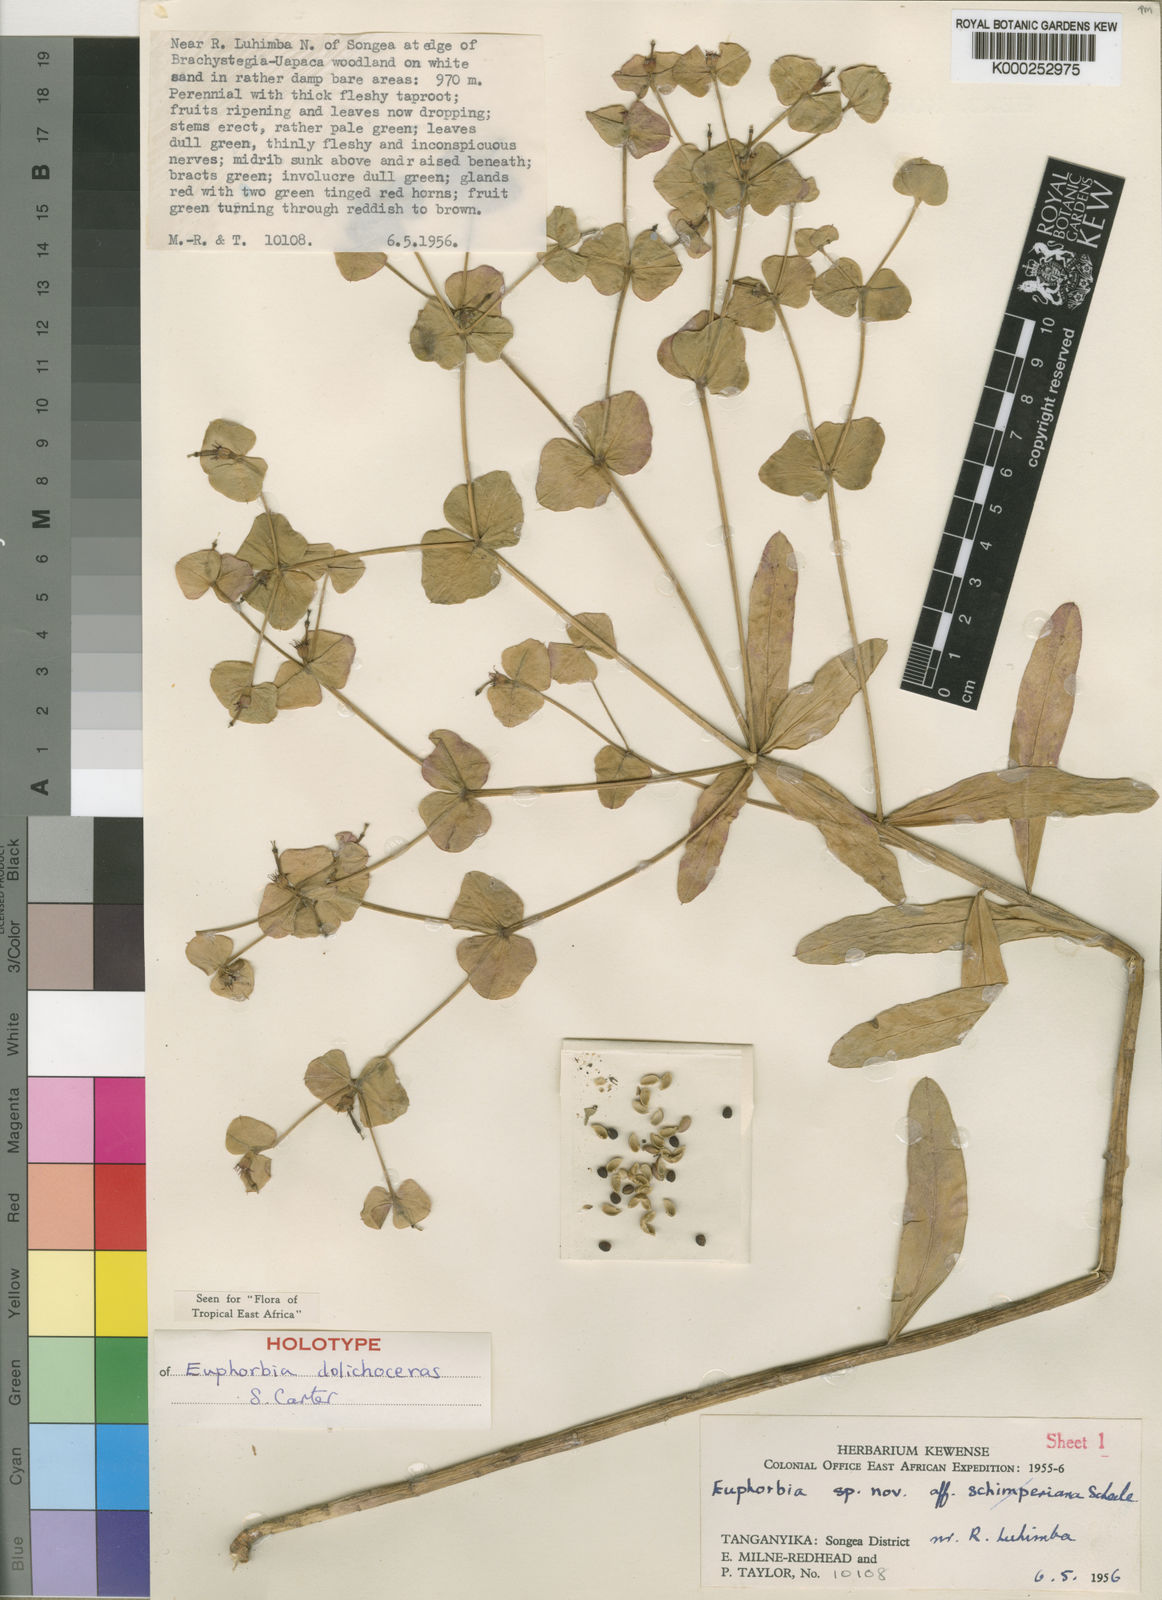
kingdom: Plantae
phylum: Tracheophyta
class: Magnoliopsida
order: Malpighiales
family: Euphorbiaceae
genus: Euphorbia
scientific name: Euphorbia dolichoceras
